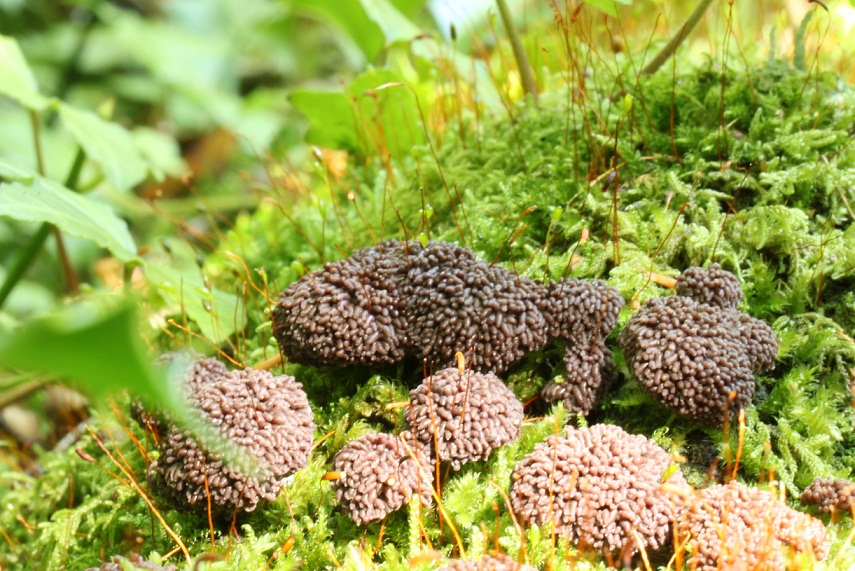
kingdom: Protozoa
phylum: Mycetozoa
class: Myxomycetes
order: Cribrariales
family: Tubiferaceae
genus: Tubifera
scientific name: Tubifera ferruginosa
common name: kanel-støvrør
